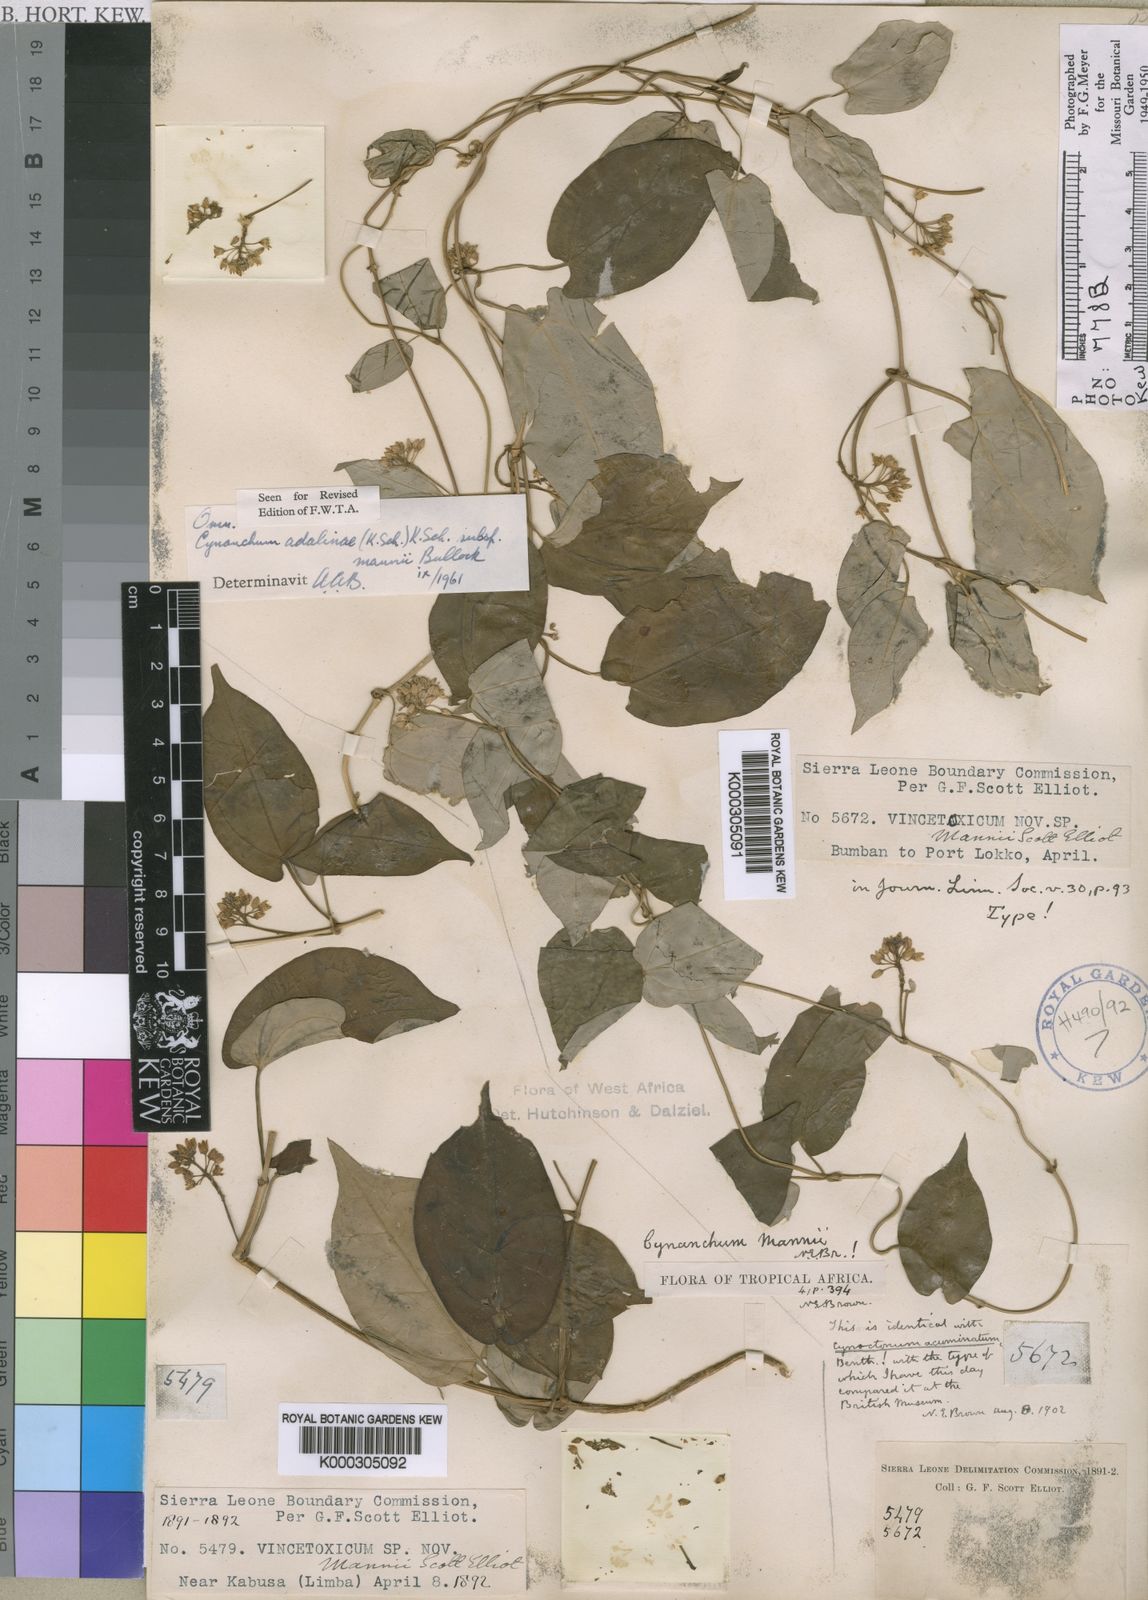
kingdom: Plantae
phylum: Tracheophyta
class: Magnoliopsida
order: Gentianales
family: Apocynaceae
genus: Cynanchum
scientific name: Cynanchum adalinae
